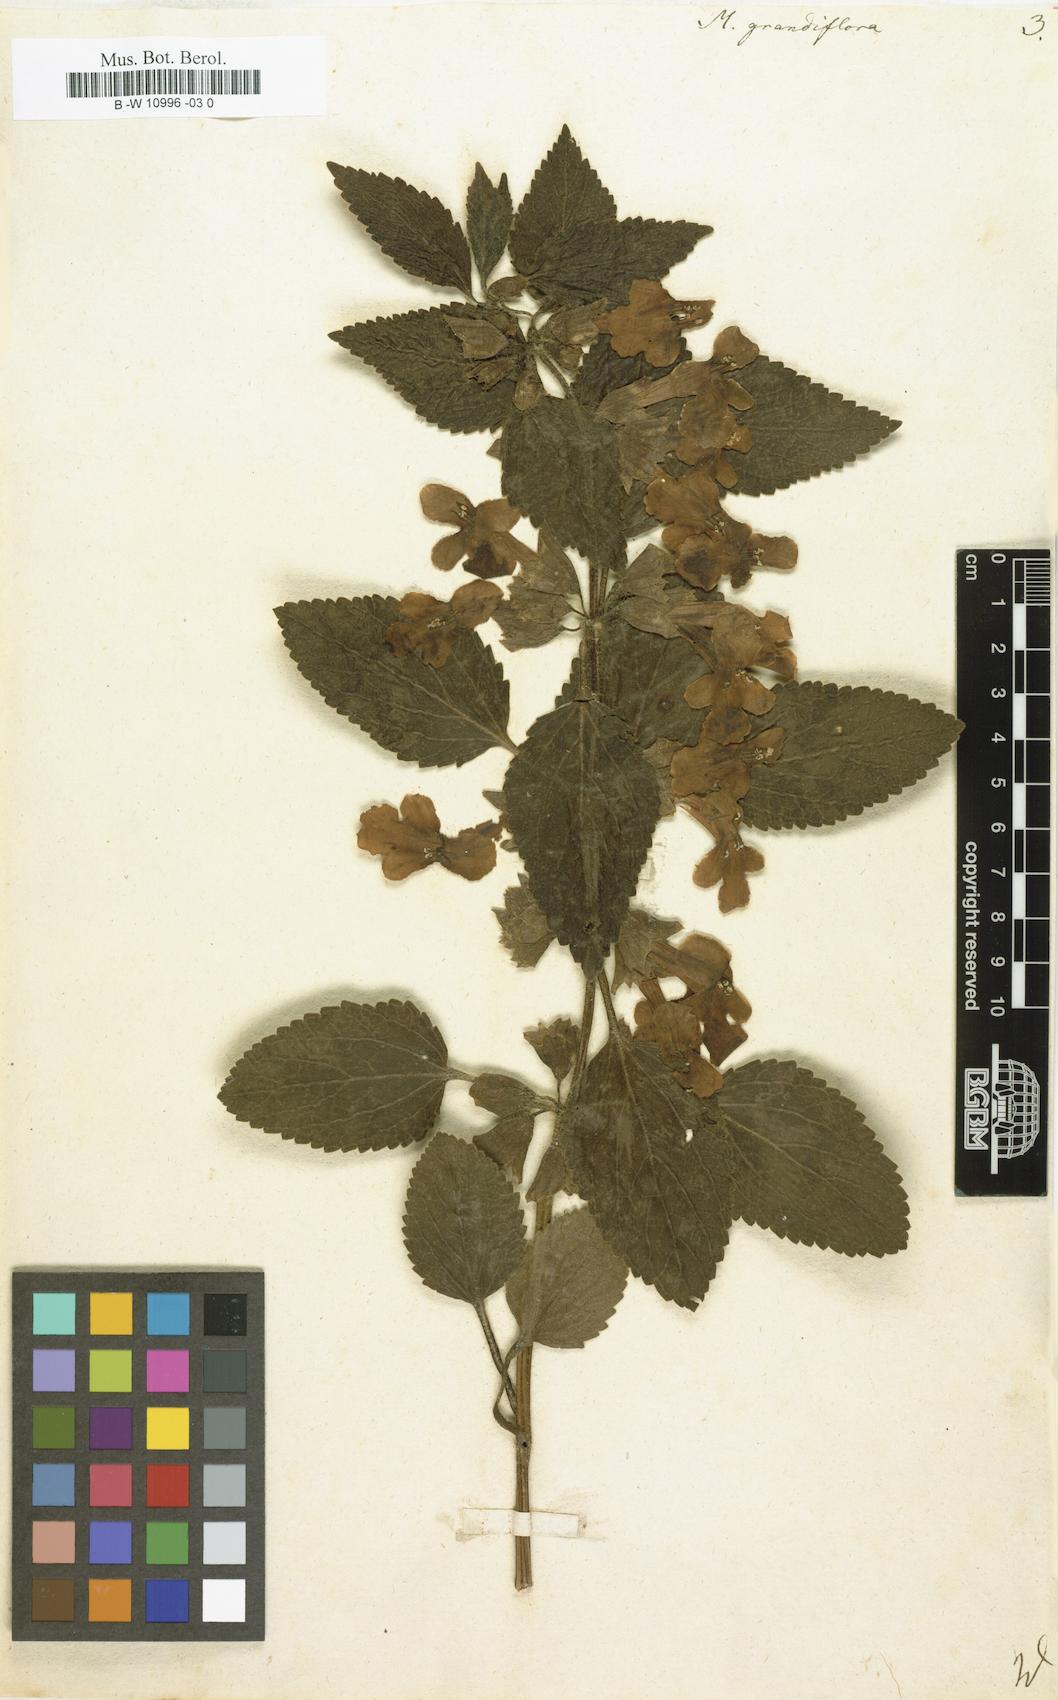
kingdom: Plantae
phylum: Tracheophyta
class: Magnoliopsida
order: Lamiales
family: Lamiaceae
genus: Melittis
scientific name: Melittis melissophyllum
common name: Bastard balm
